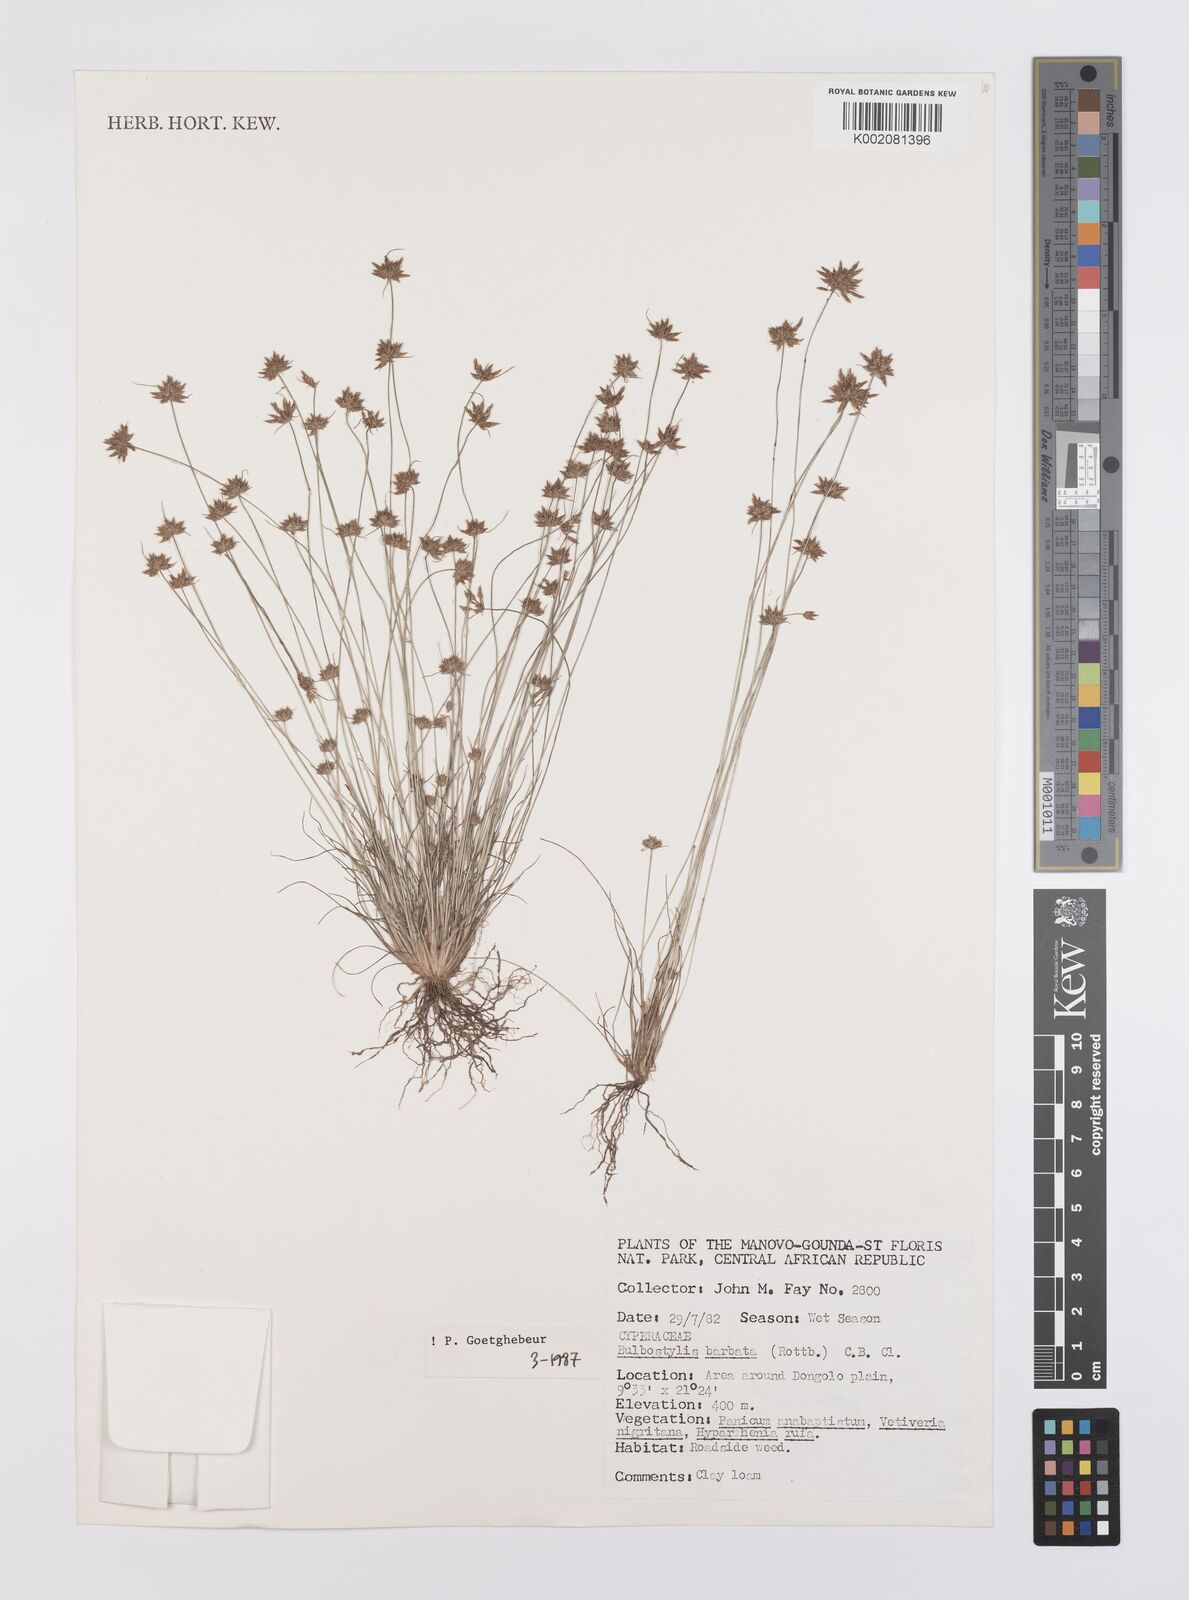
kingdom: Plantae
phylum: Tracheophyta
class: Liliopsida
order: Poales
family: Cyperaceae
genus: Bulbostylis
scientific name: Bulbostylis barbata
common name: Watergrass
